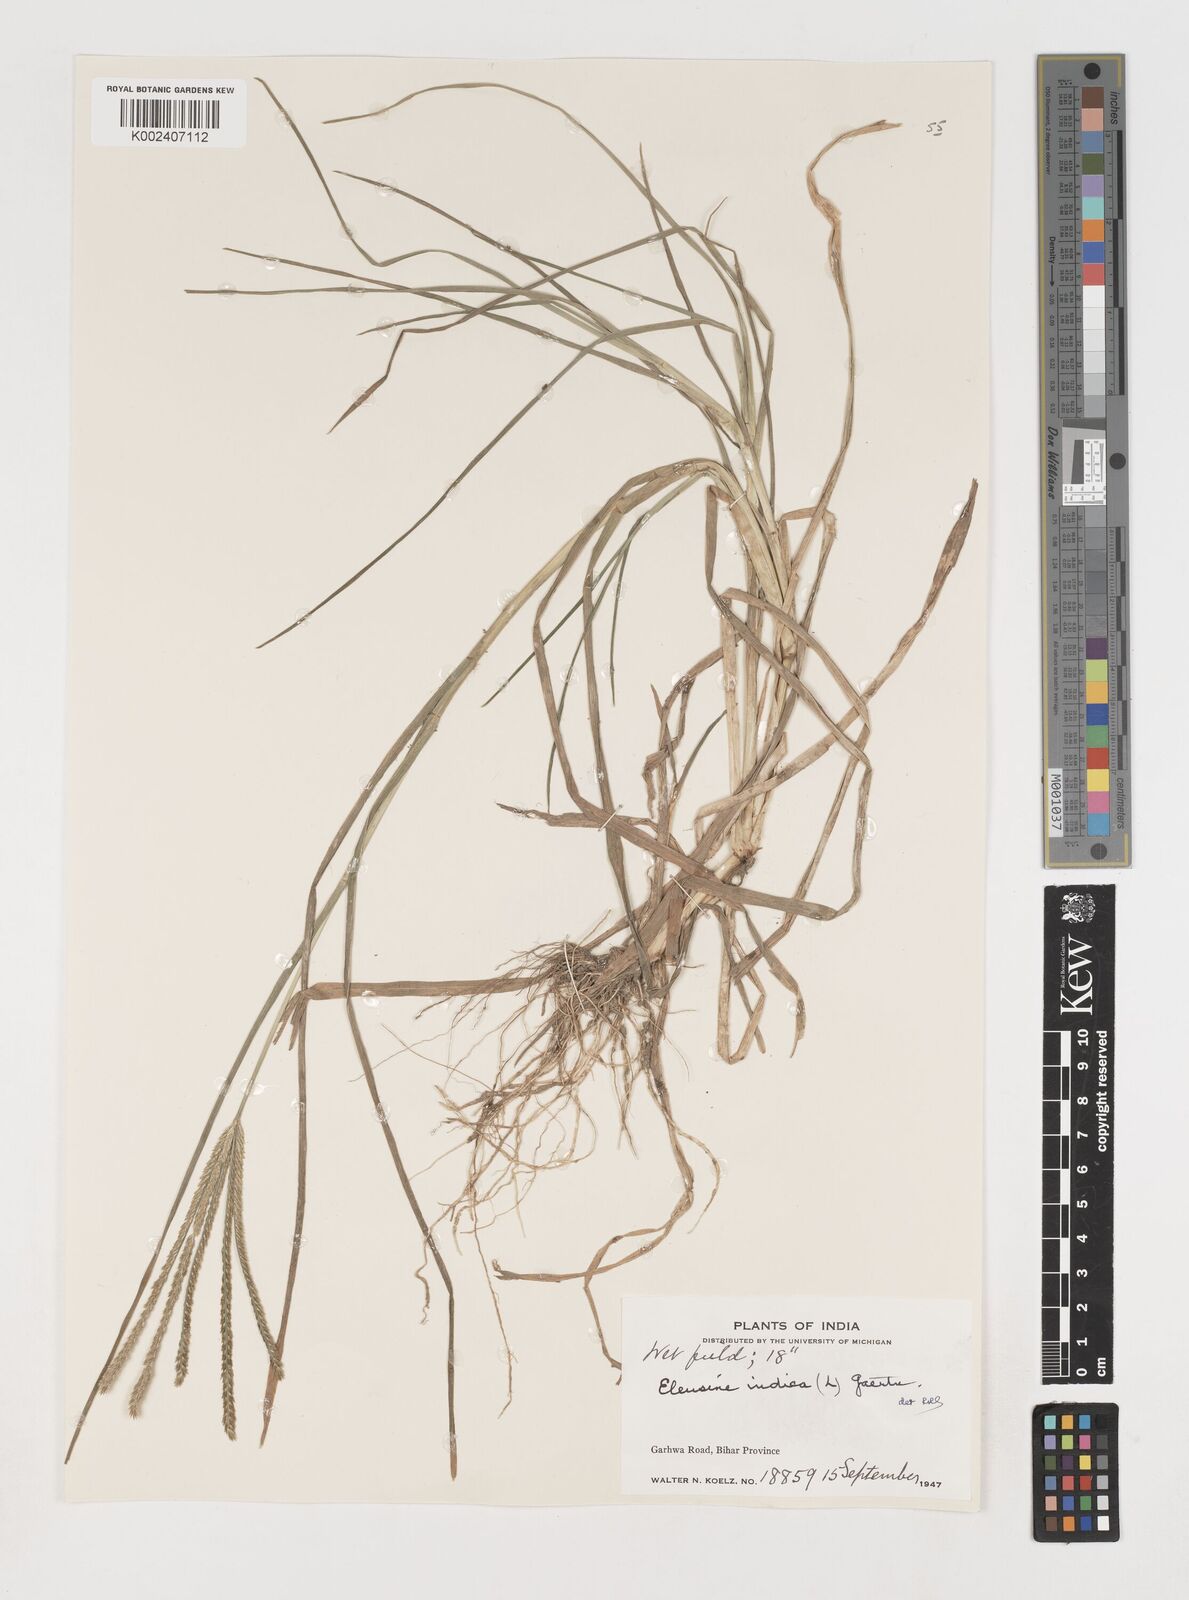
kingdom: Plantae
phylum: Tracheophyta
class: Liliopsida
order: Poales
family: Poaceae
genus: Eleusine
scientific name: Eleusine indica
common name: Yard-grass
